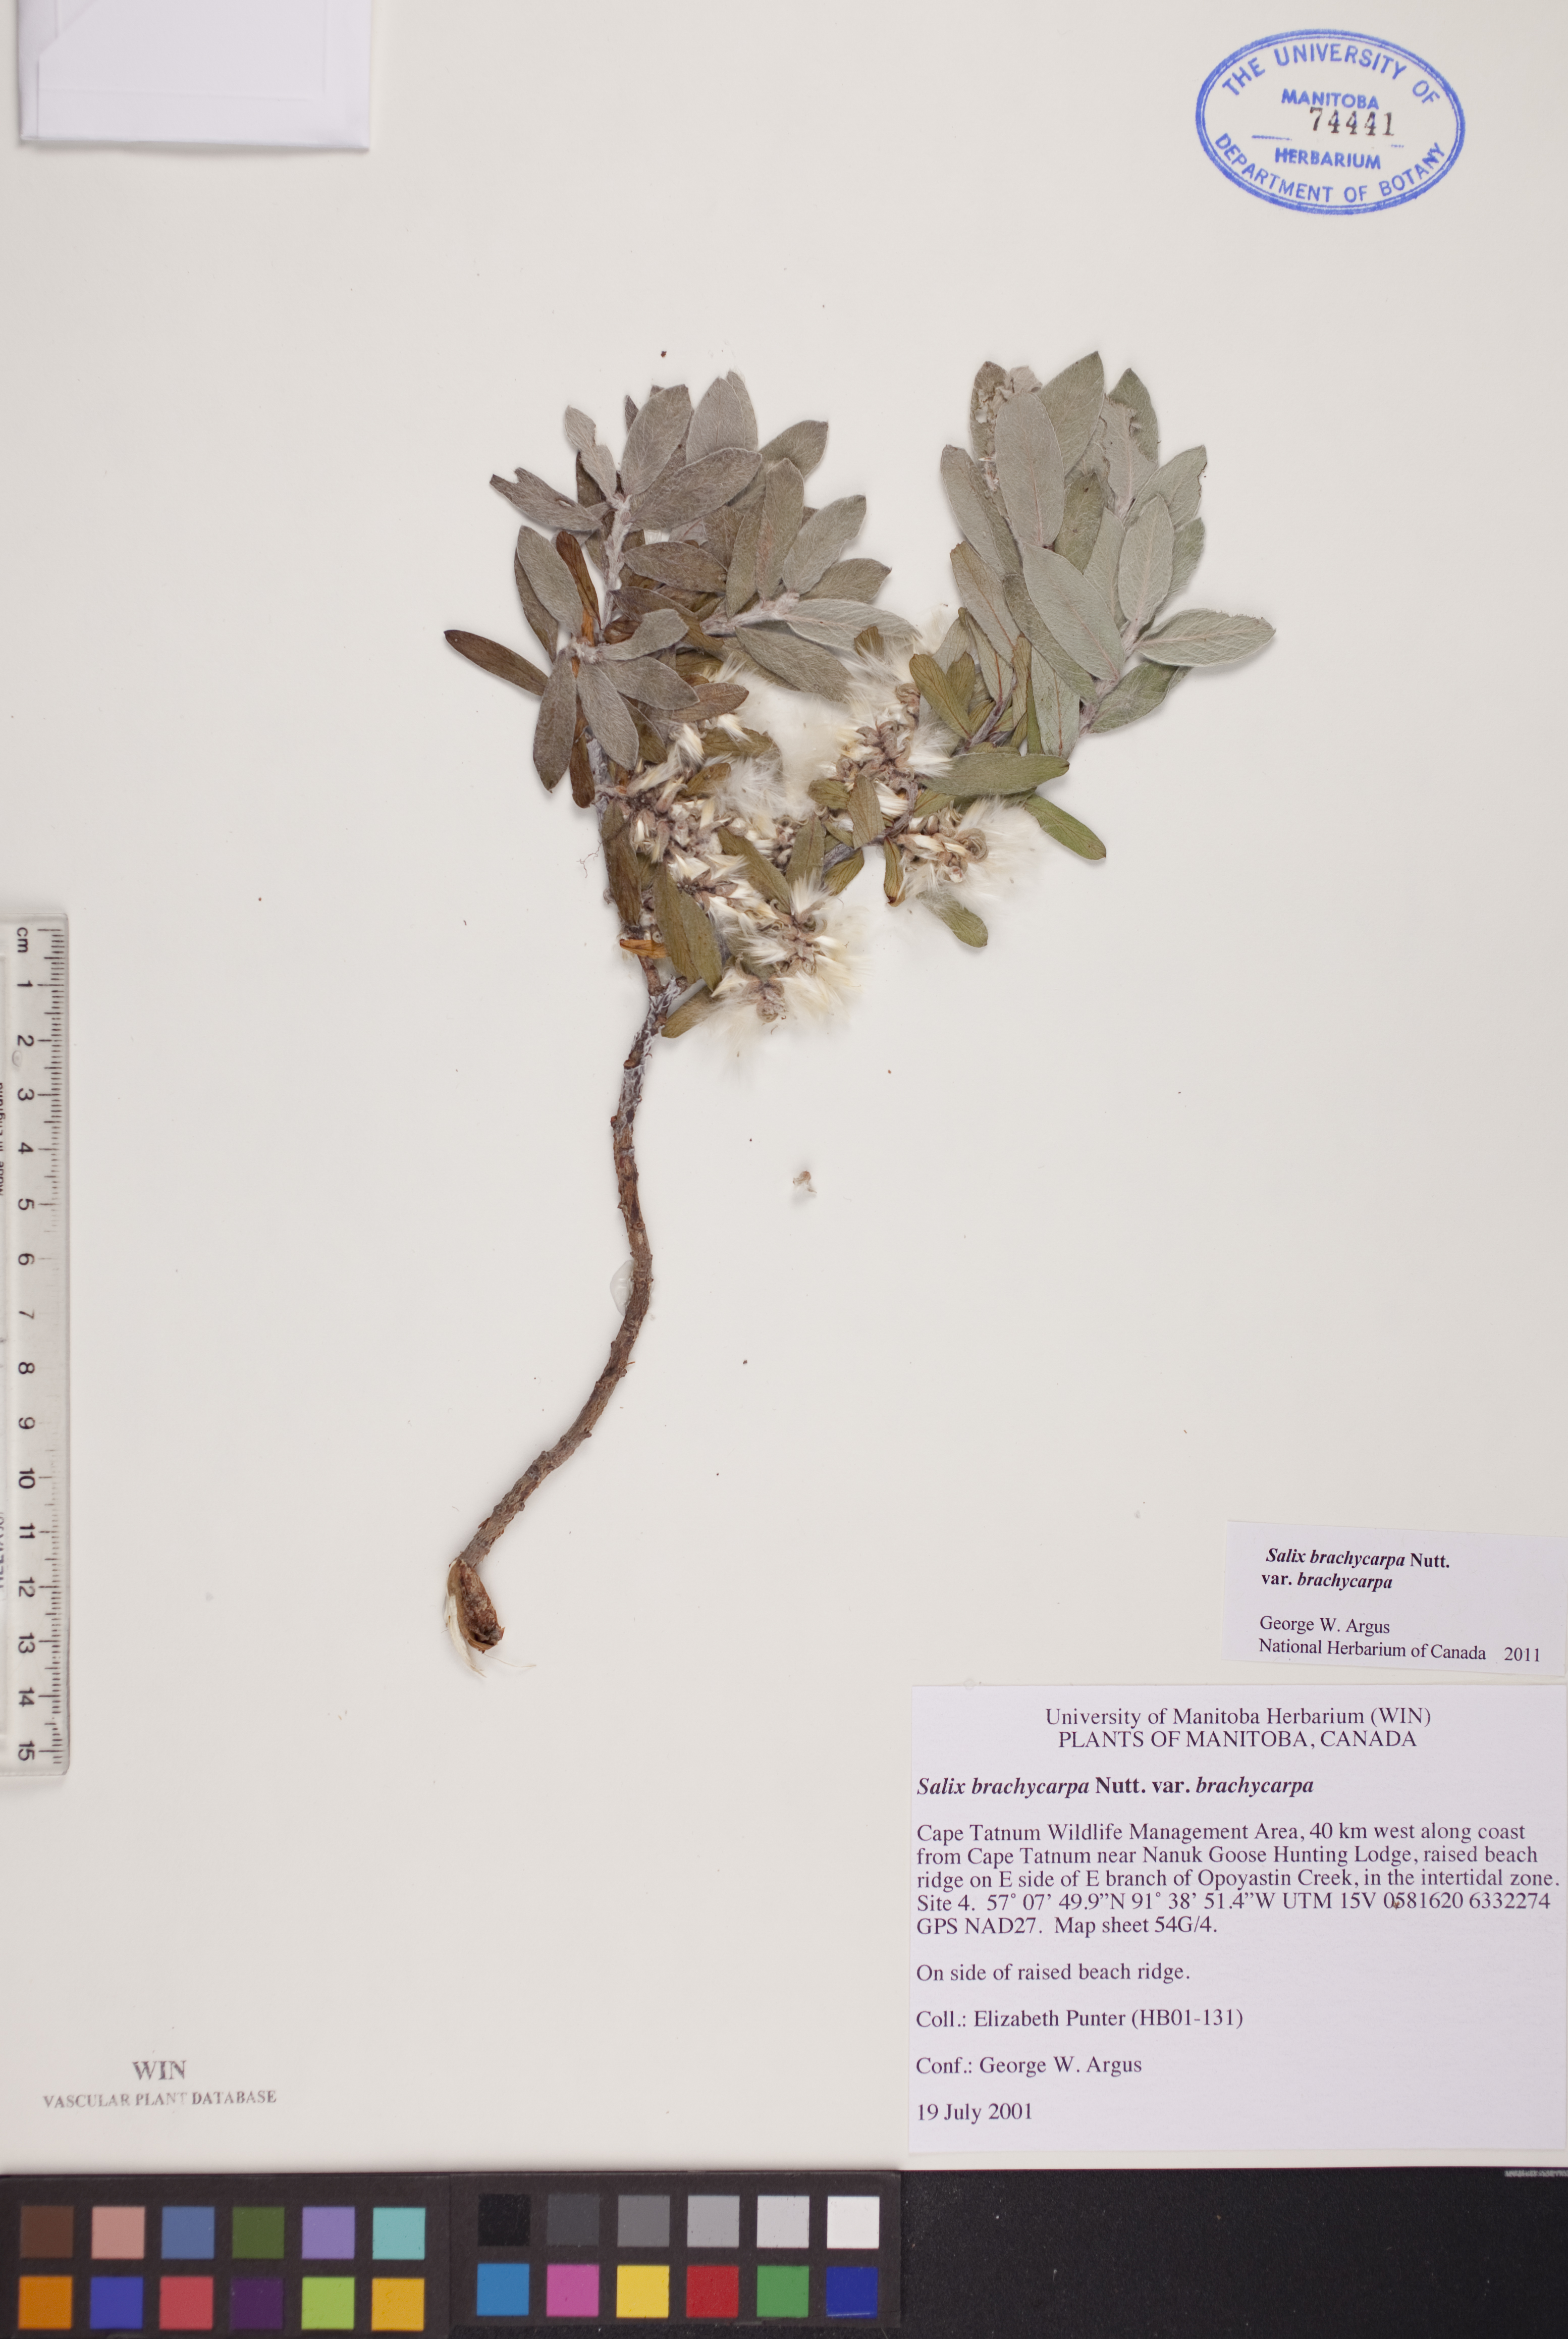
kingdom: Plantae
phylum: Tracheophyta
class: Magnoliopsida
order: Malpighiales
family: Salicaceae
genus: Salix
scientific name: Salix brachycarpa
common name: Barren-ground willow
